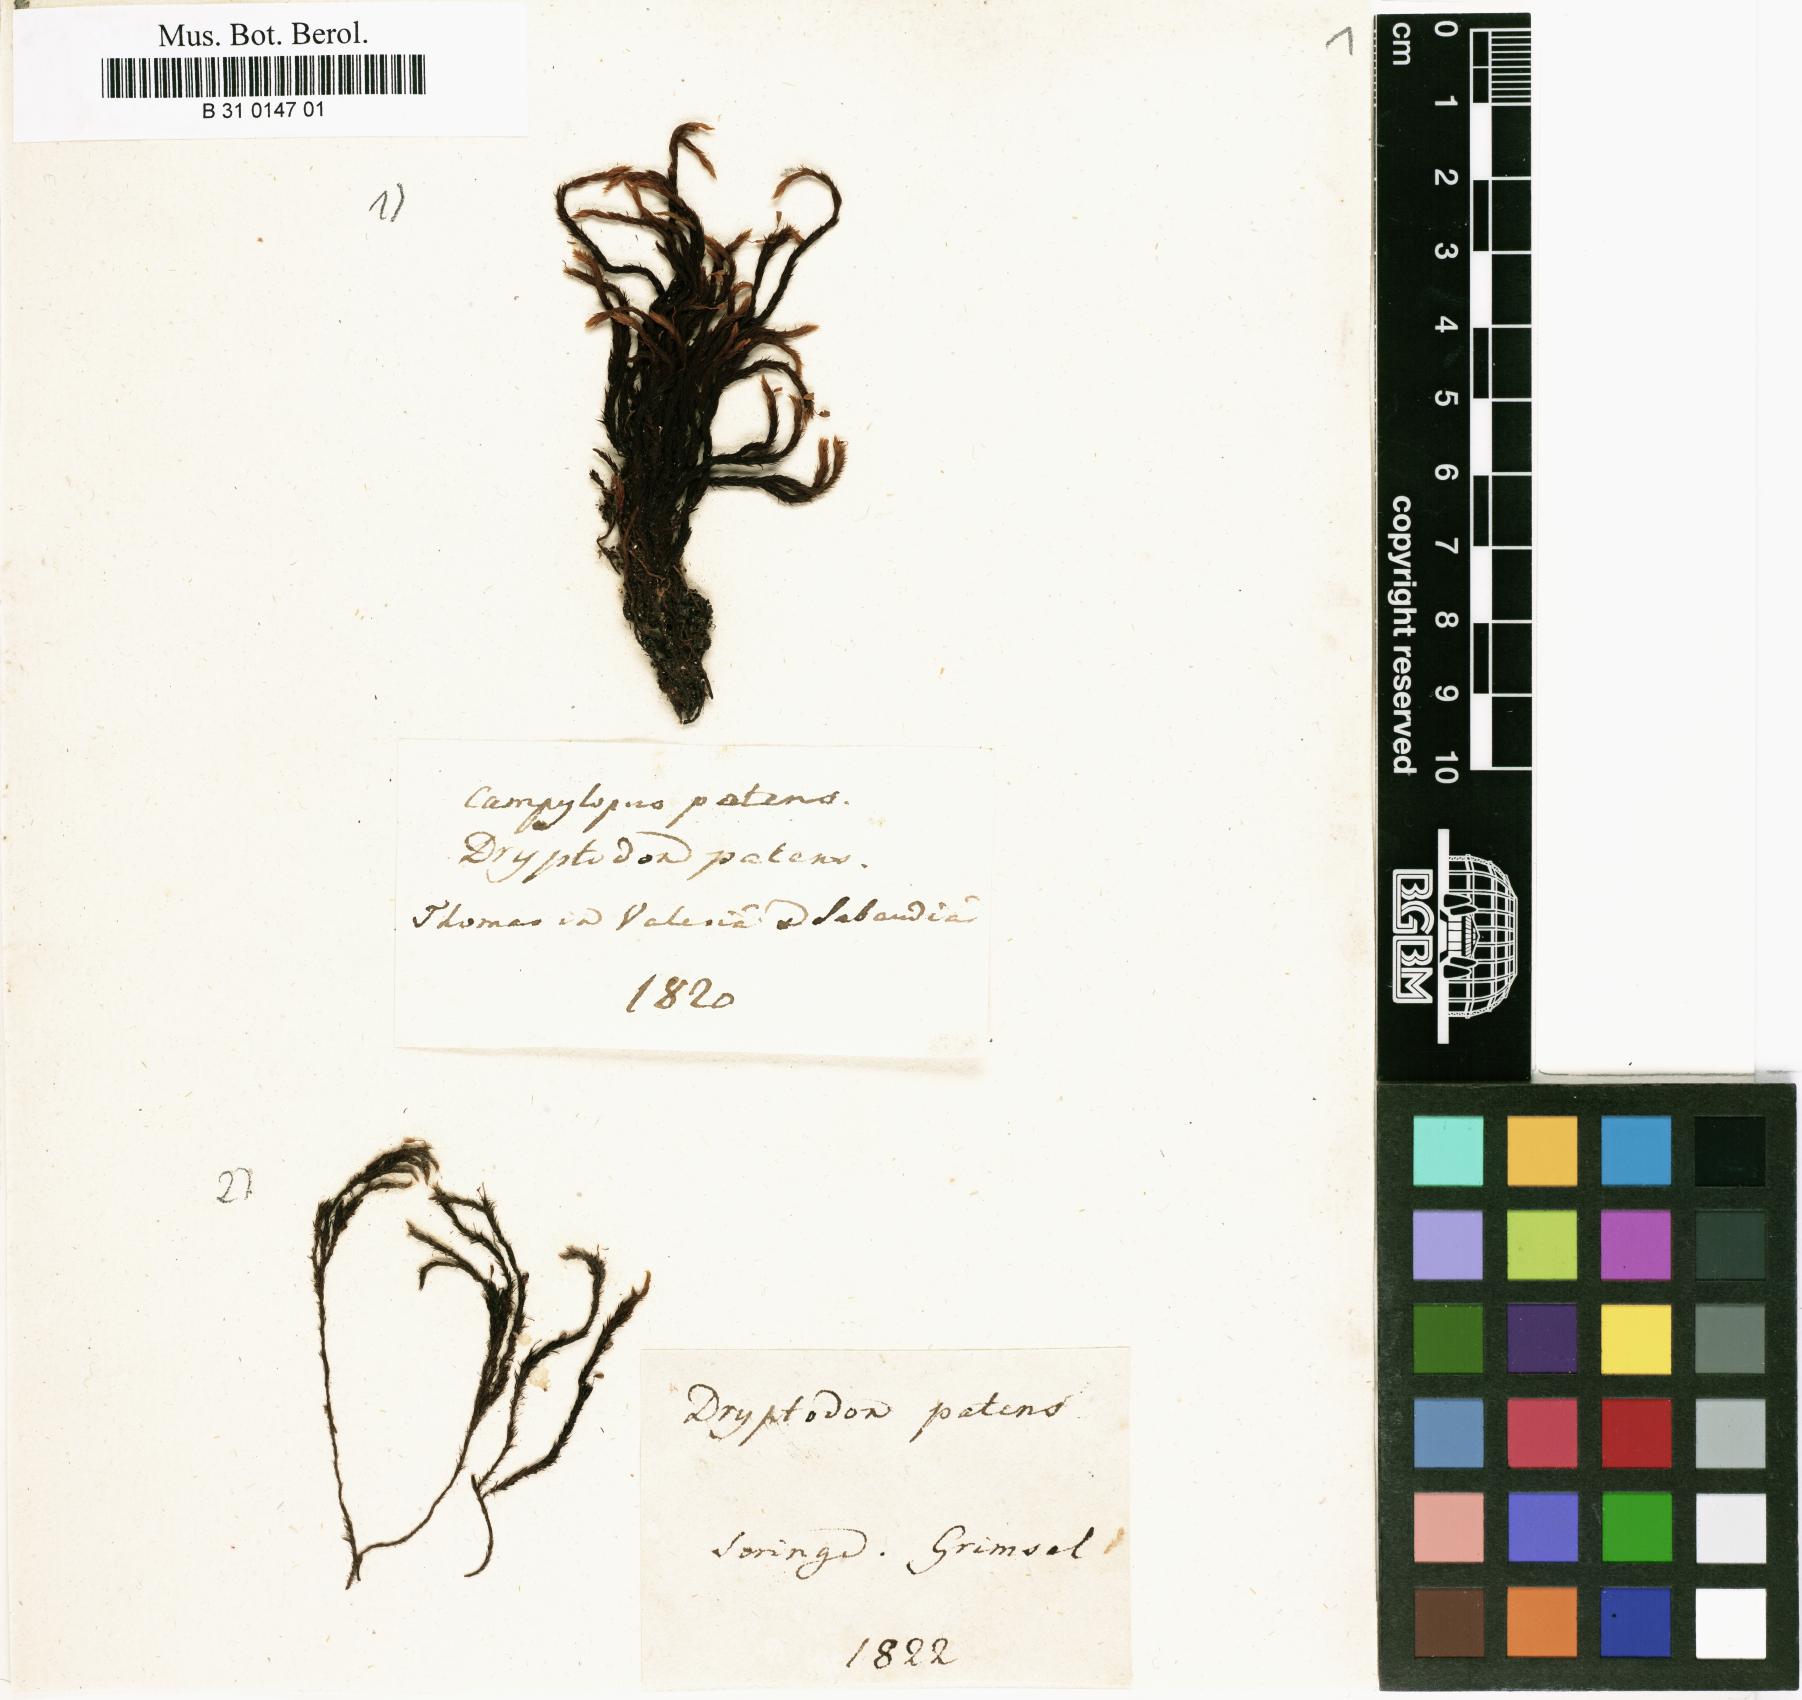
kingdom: Plantae
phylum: Bryophyta
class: Bryopsida
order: Grimmiales
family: Grimmiaceae
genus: Grimmia
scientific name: Grimmia ramondii
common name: Spreading-leaved grimmia
